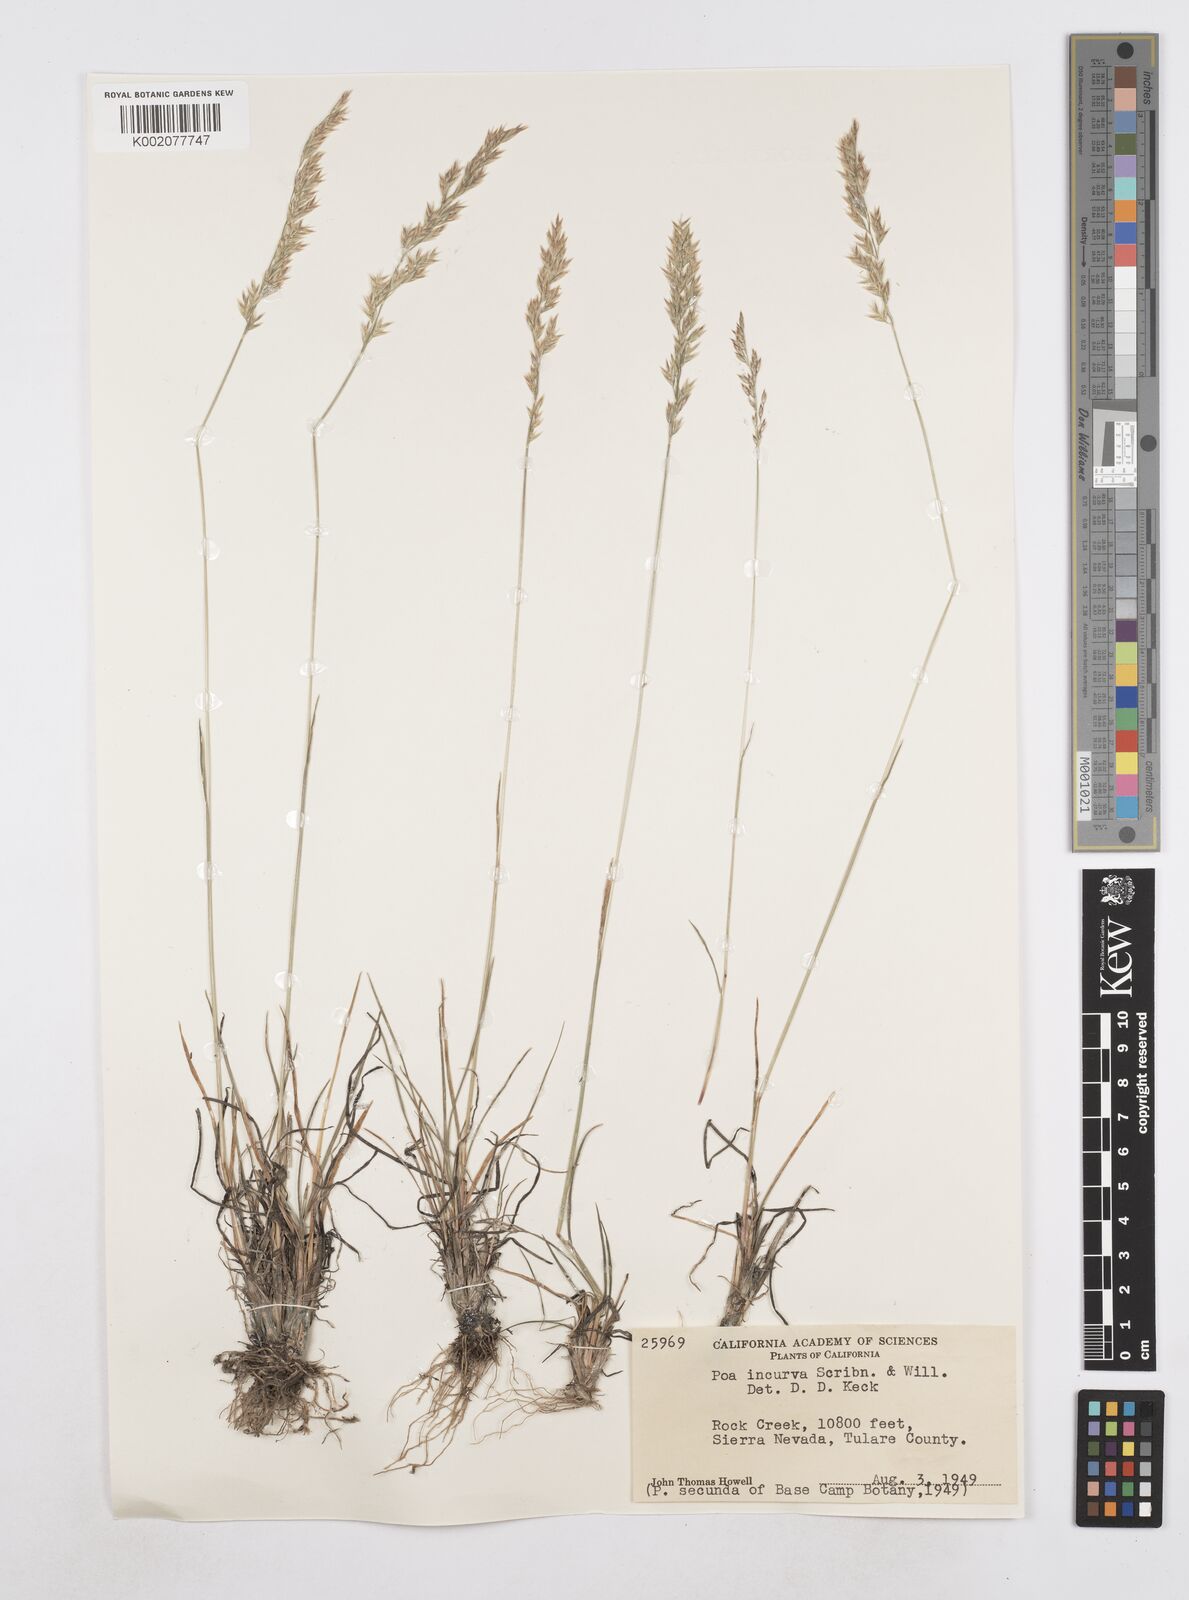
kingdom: Plantae
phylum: Tracheophyta
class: Liliopsida
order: Poales
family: Poaceae
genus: Poa
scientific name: Poa secunda
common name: Sandberg bluegrass
